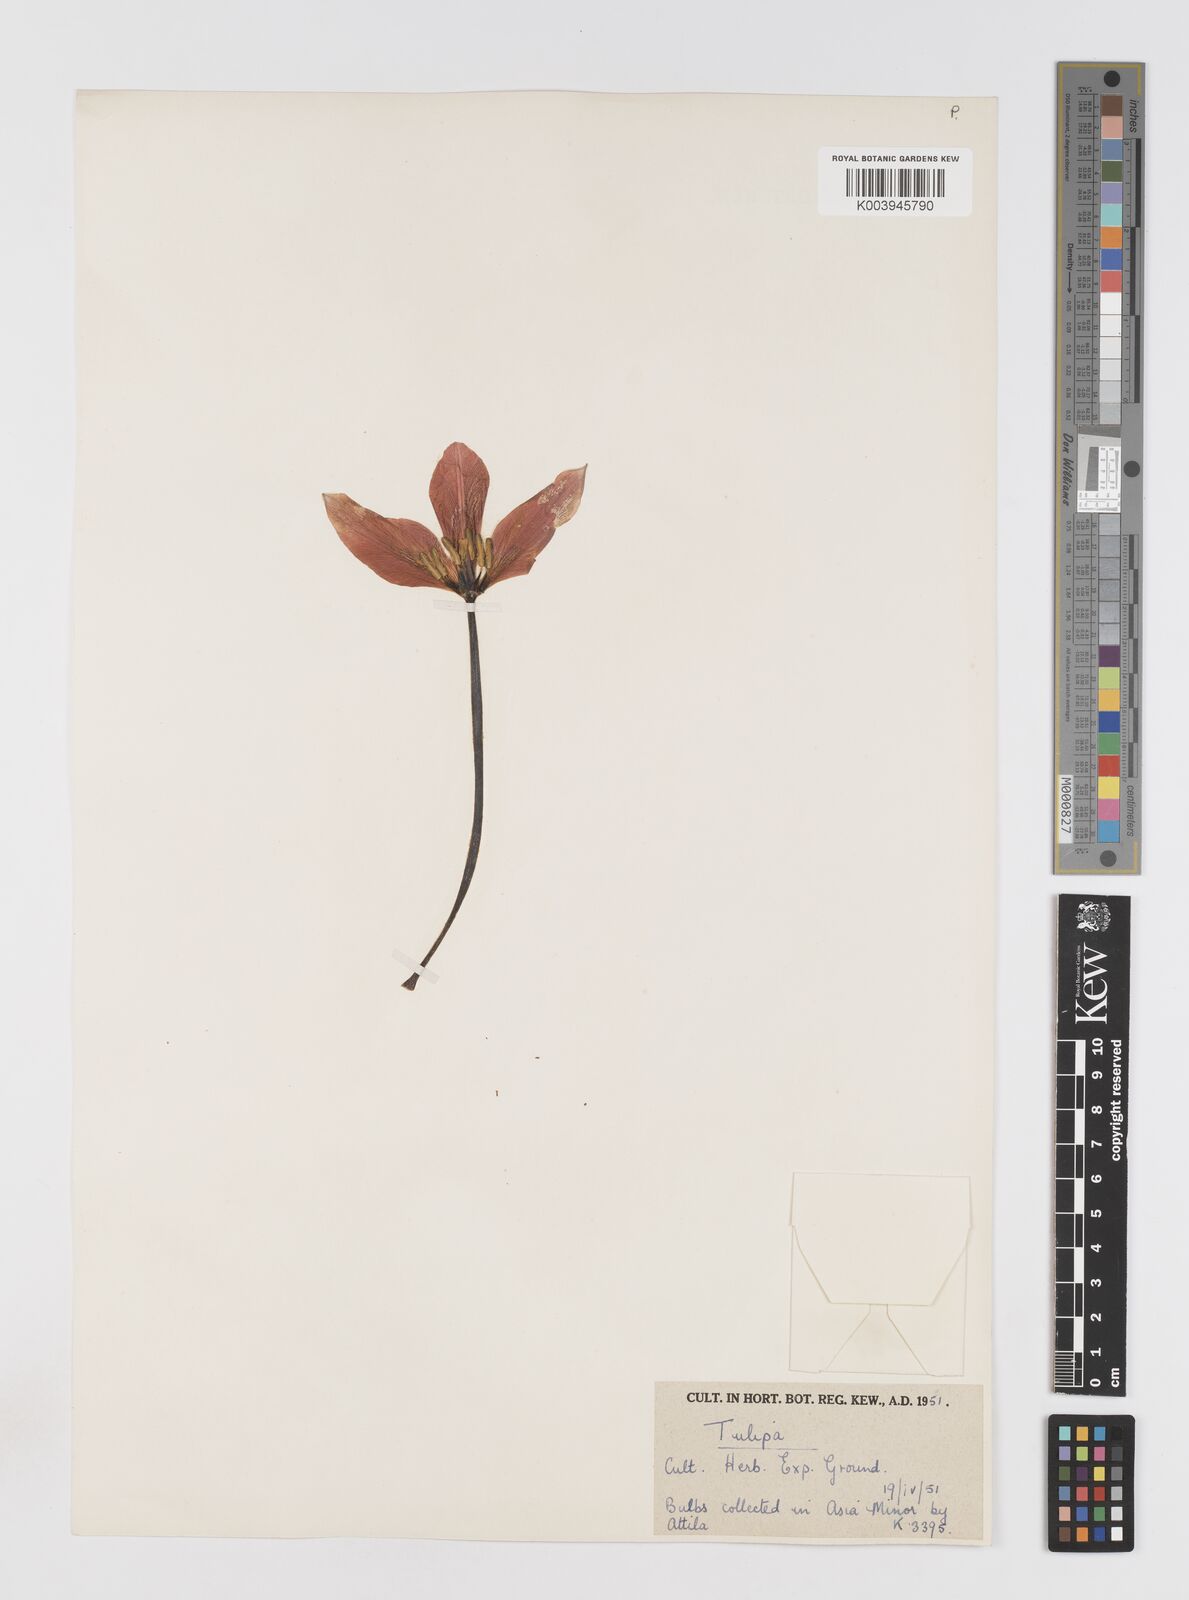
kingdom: Plantae
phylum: Tracheophyta
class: Liliopsida
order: Liliales
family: Liliaceae
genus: Tulipa
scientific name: Tulipa foliosa
